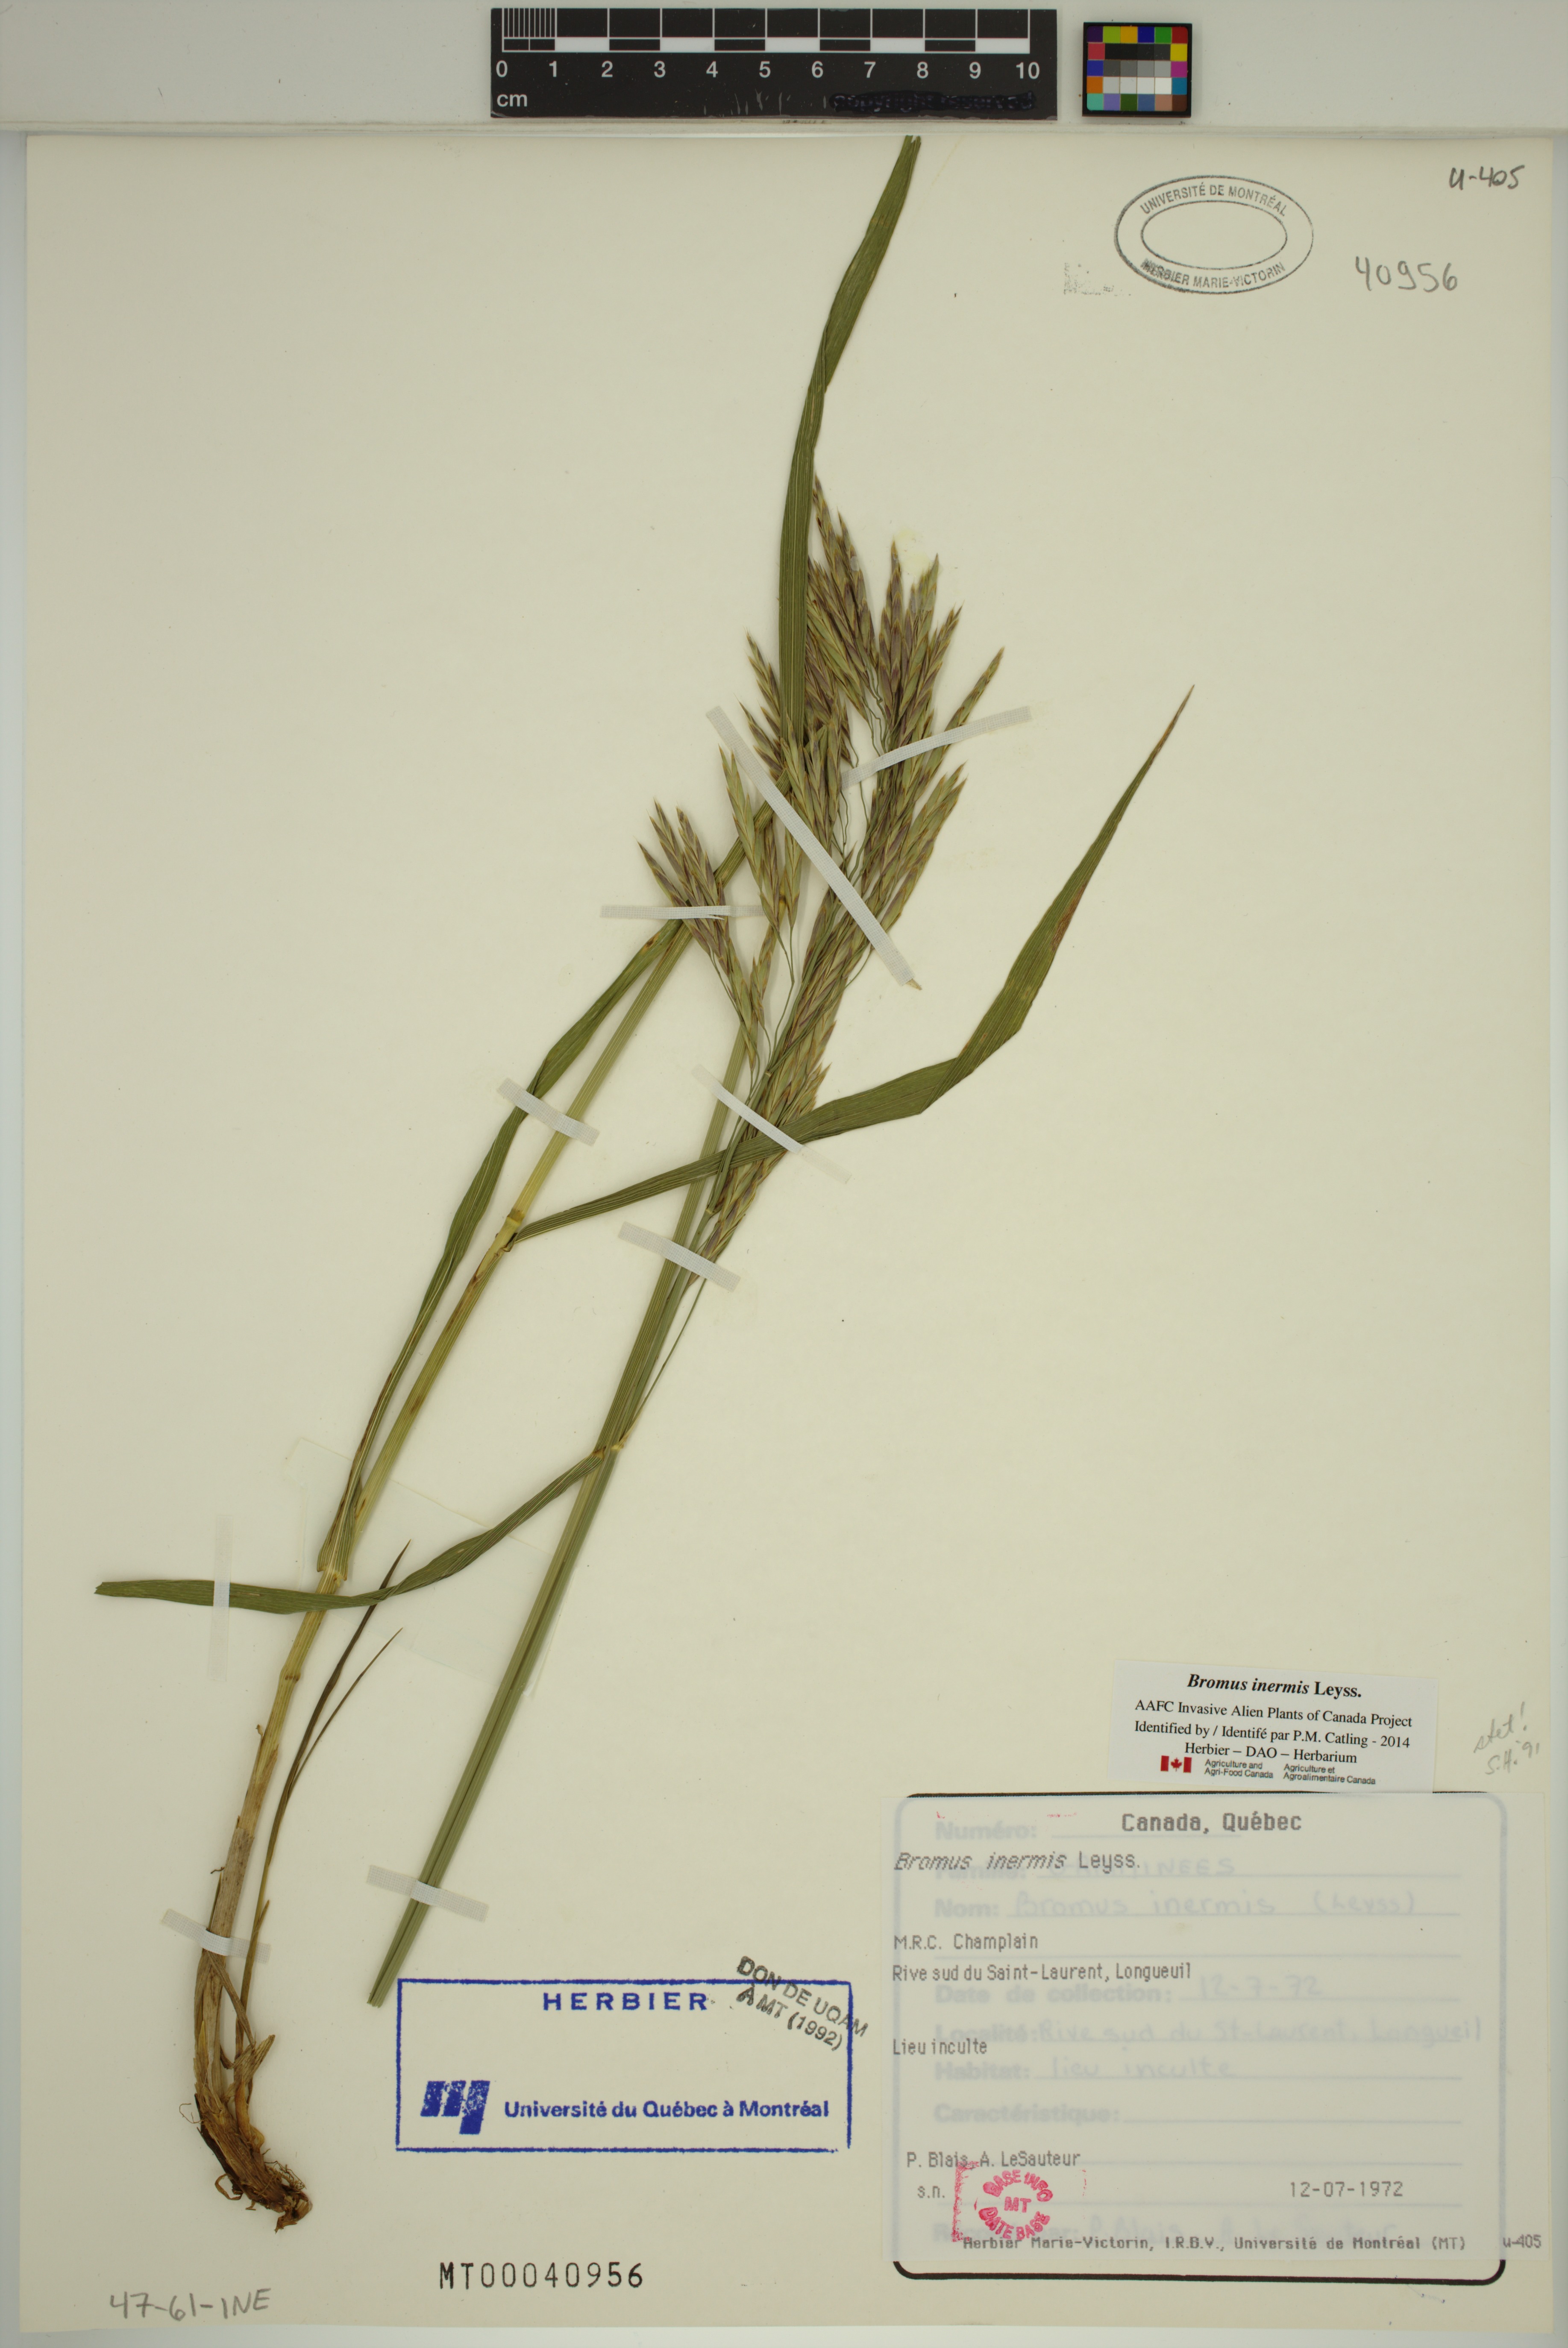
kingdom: Plantae
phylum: Tracheophyta
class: Liliopsida
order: Poales
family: Poaceae
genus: Bromus
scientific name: Bromus inermis
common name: Smooth brome
